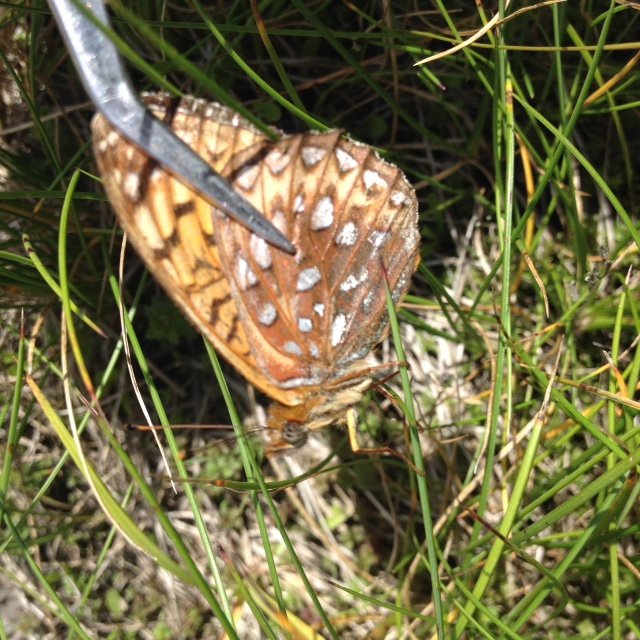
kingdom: Animalia
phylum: Arthropoda
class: Insecta
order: Lepidoptera
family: Nymphalidae
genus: Speyeria
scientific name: Speyeria atlantis
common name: Atlantis Fritillary
